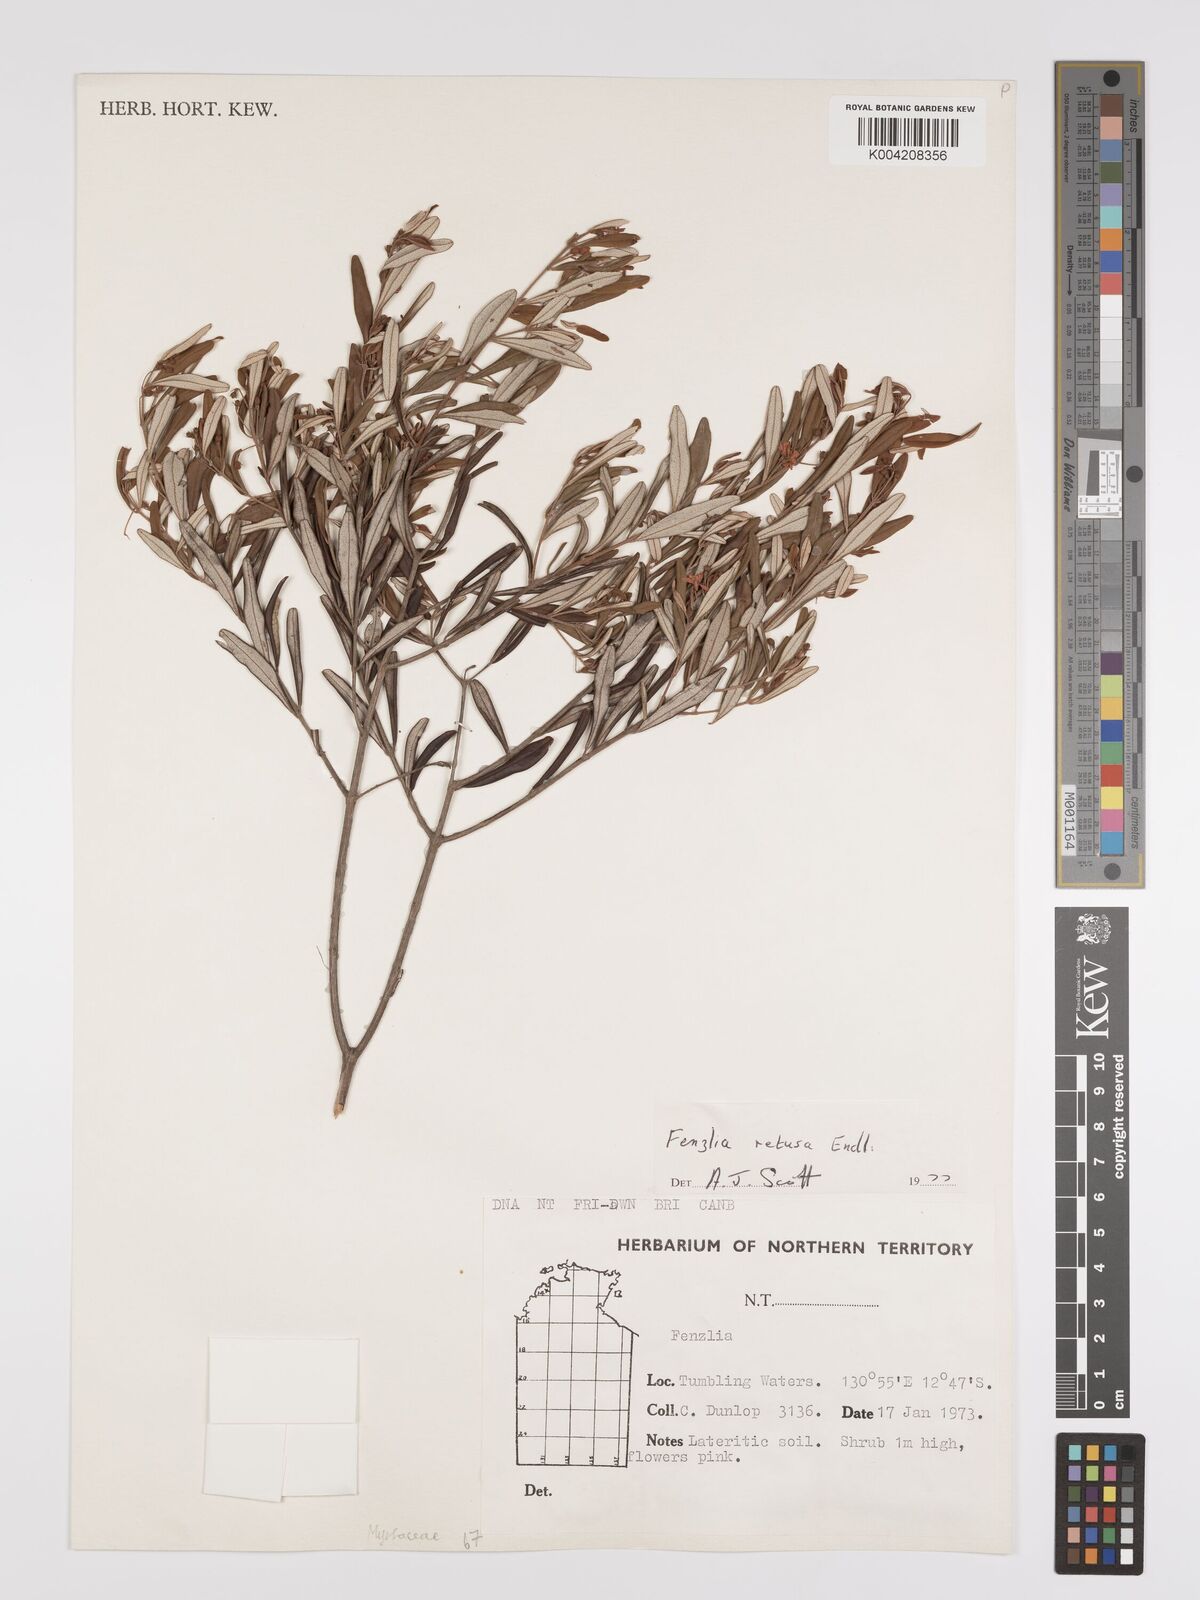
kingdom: Plantae
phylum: Tracheophyta
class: Magnoliopsida
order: Myrtales
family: Myrtaceae
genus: Lithomyrtus
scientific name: Lithomyrtus retusa
